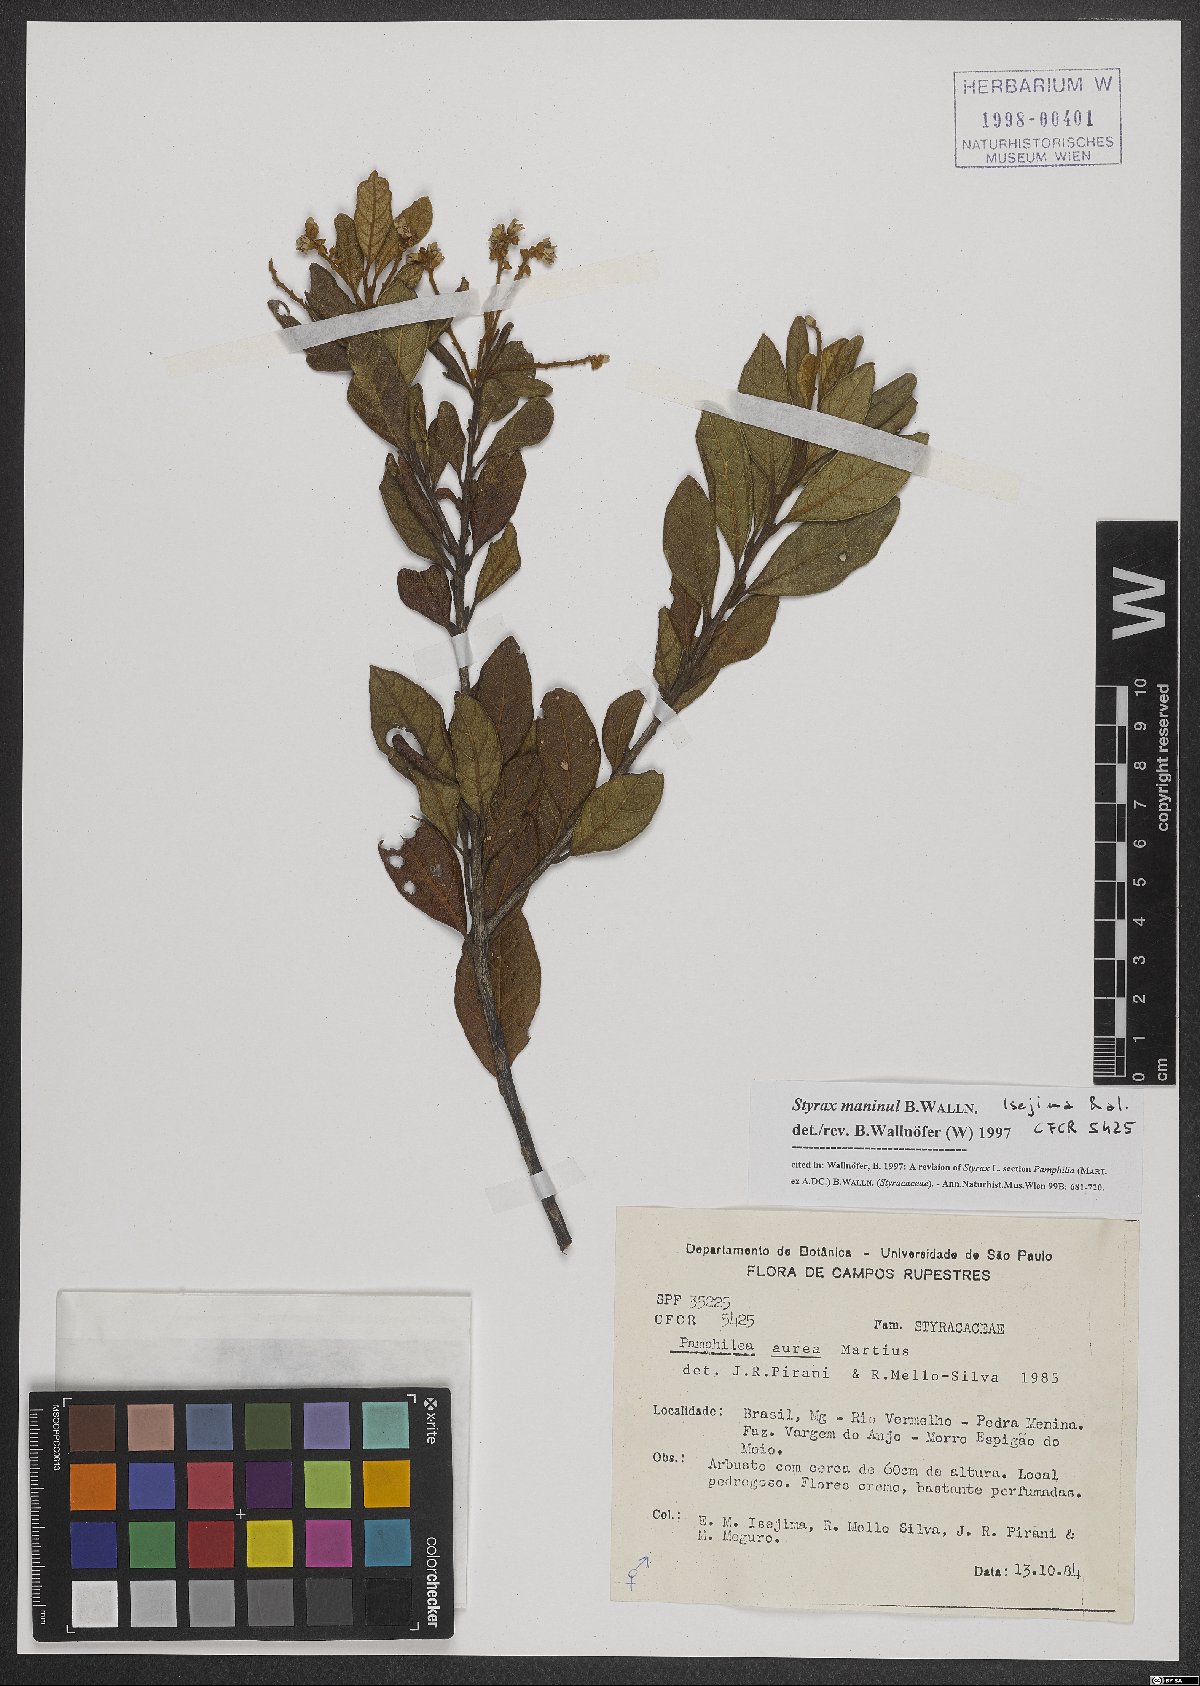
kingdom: Plantae
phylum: Tracheophyta
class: Magnoliopsida
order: Ericales
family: Styracaceae
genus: Styrax
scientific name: Styrax maninul
